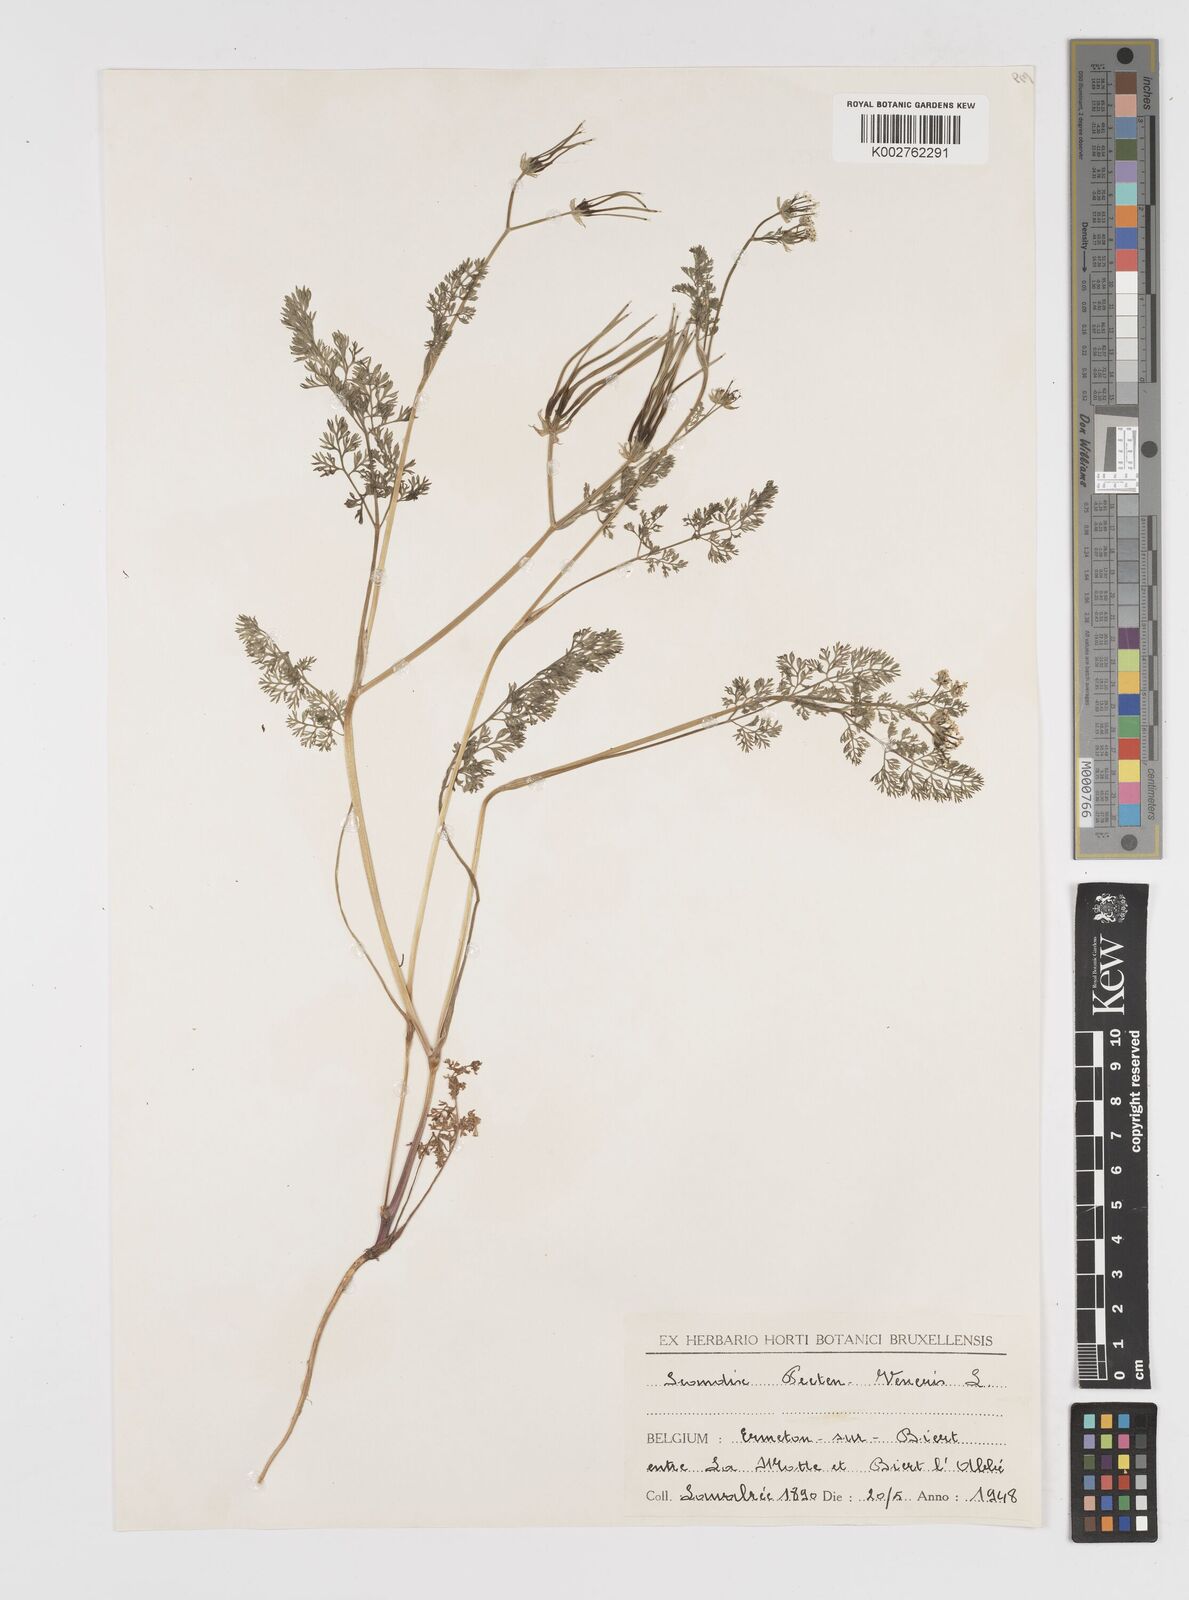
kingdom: Plantae
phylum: Tracheophyta
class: Magnoliopsida
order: Apiales
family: Apiaceae
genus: Scandix
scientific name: Scandix pecten-veneris
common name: Shepherd's-needle
